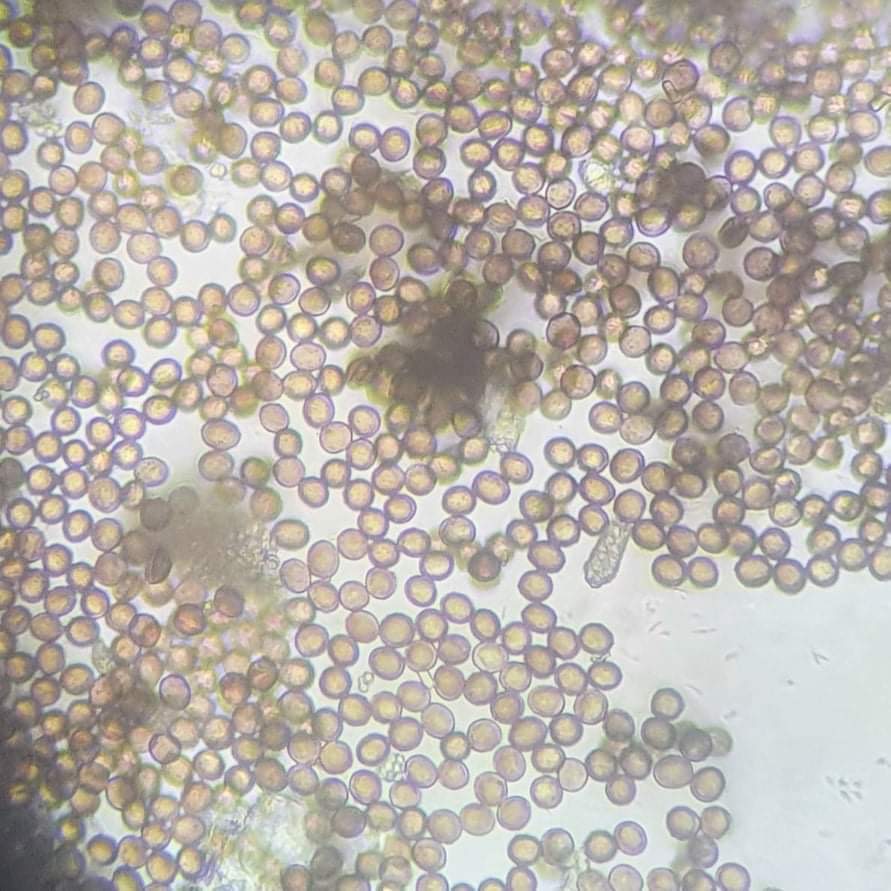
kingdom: Protozoa
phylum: Mycetozoa
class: Myxomycetes
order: Physarales
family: Physaraceae
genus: Fuligo
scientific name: Fuligo luteonitens
